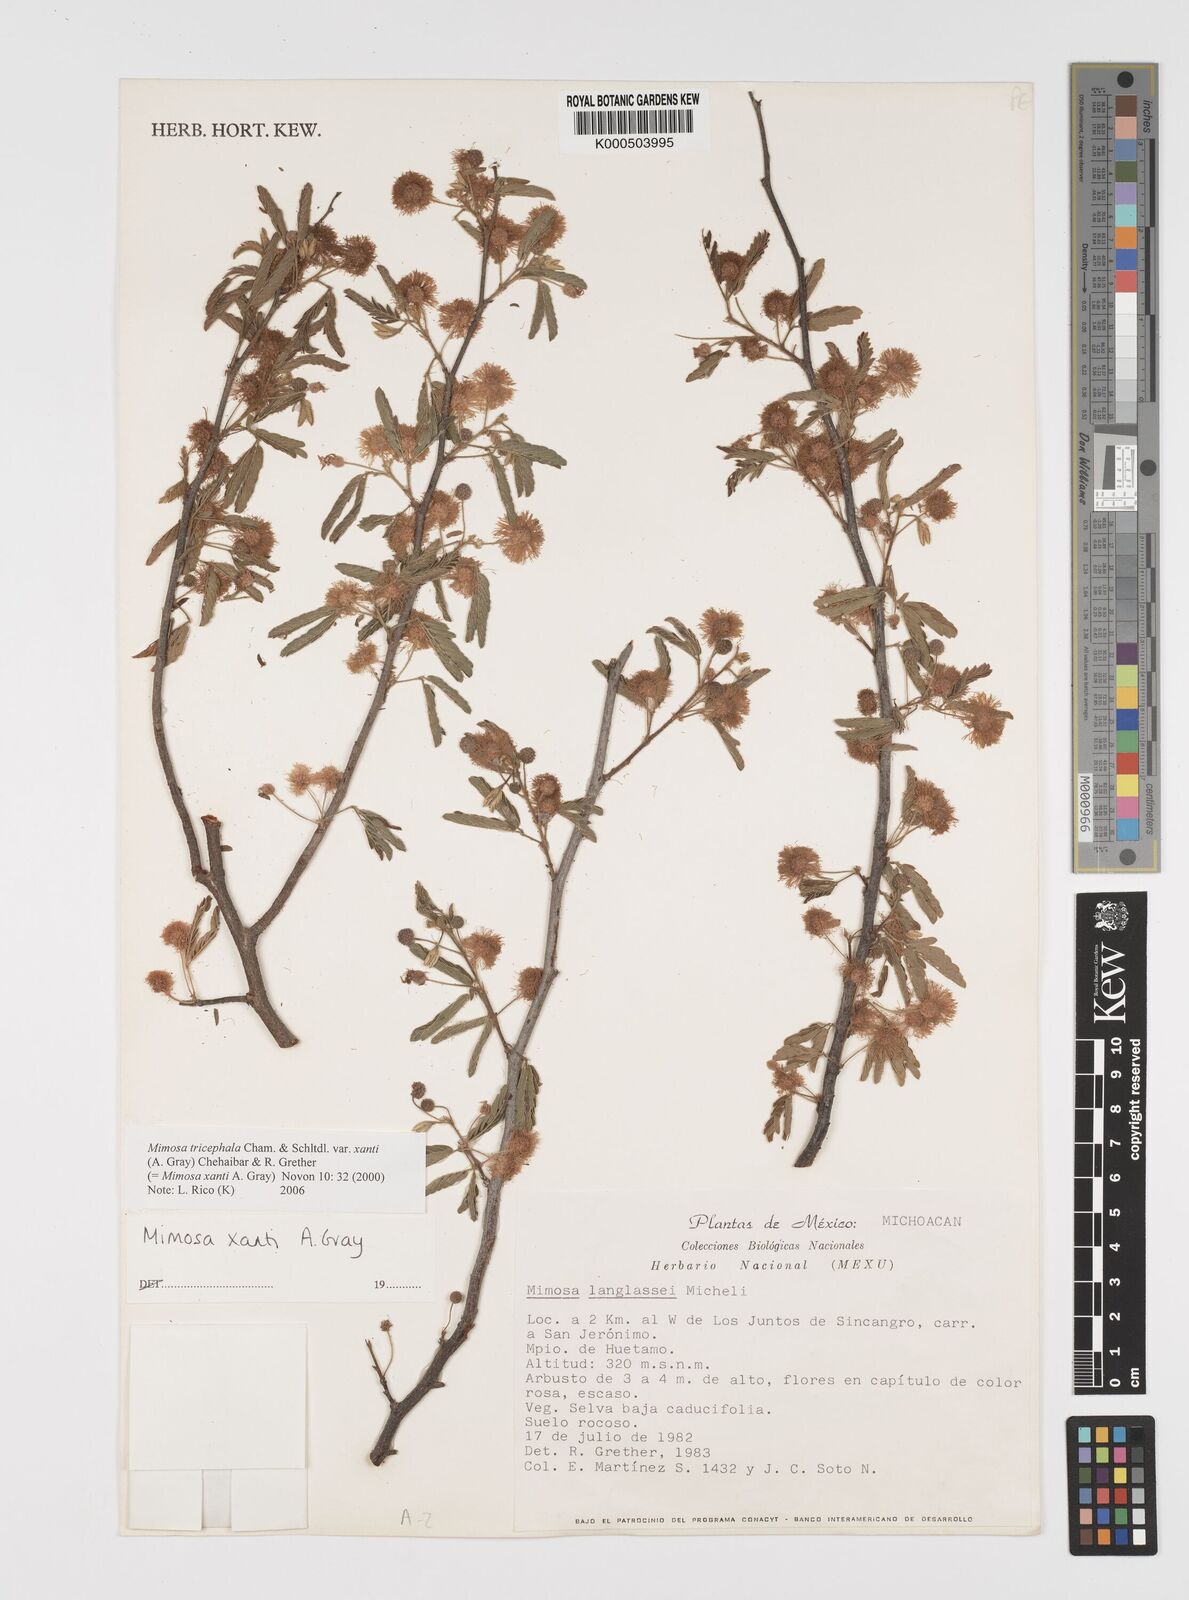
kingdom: Plantae
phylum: Tracheophyta
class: Magnoliopsida
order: Fabales
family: Fabaceae
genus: Mimosa
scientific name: Mimosa tricephala
